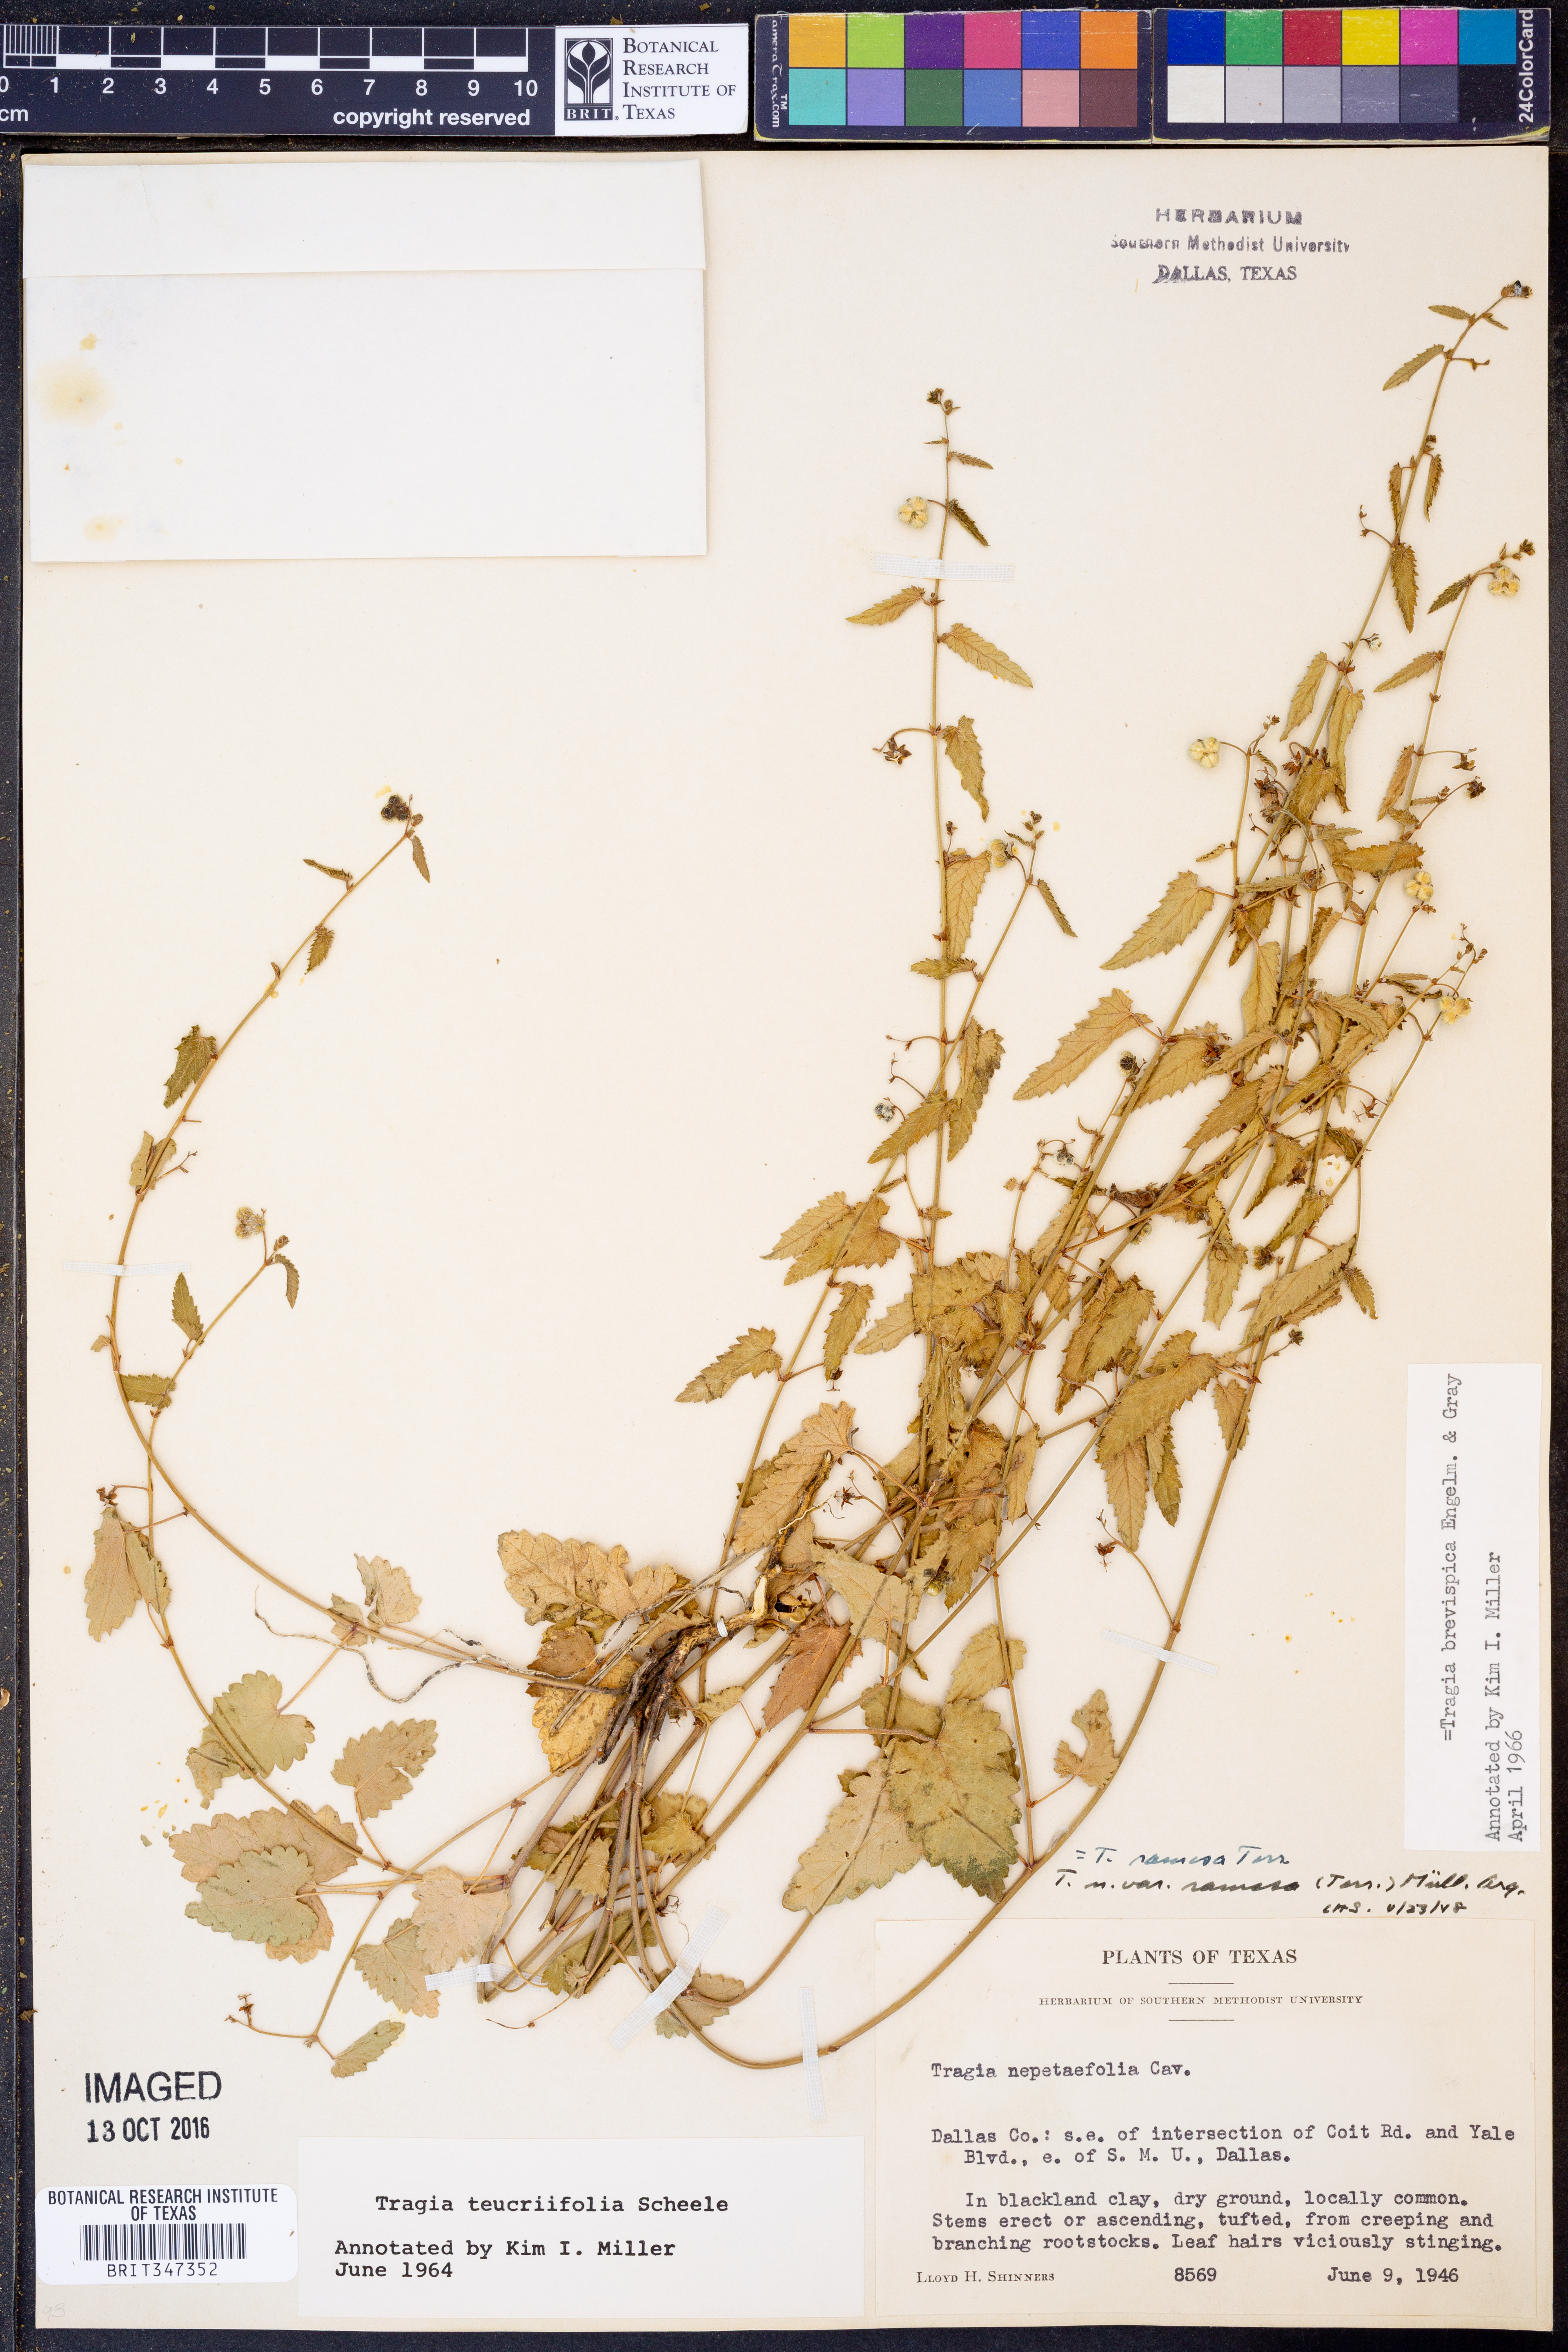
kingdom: Plantae
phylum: Tracheophyta
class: Magnoliopsida
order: Malpighiales
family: Euphorbiaceae
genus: Tragia
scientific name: Tragia brevispica
